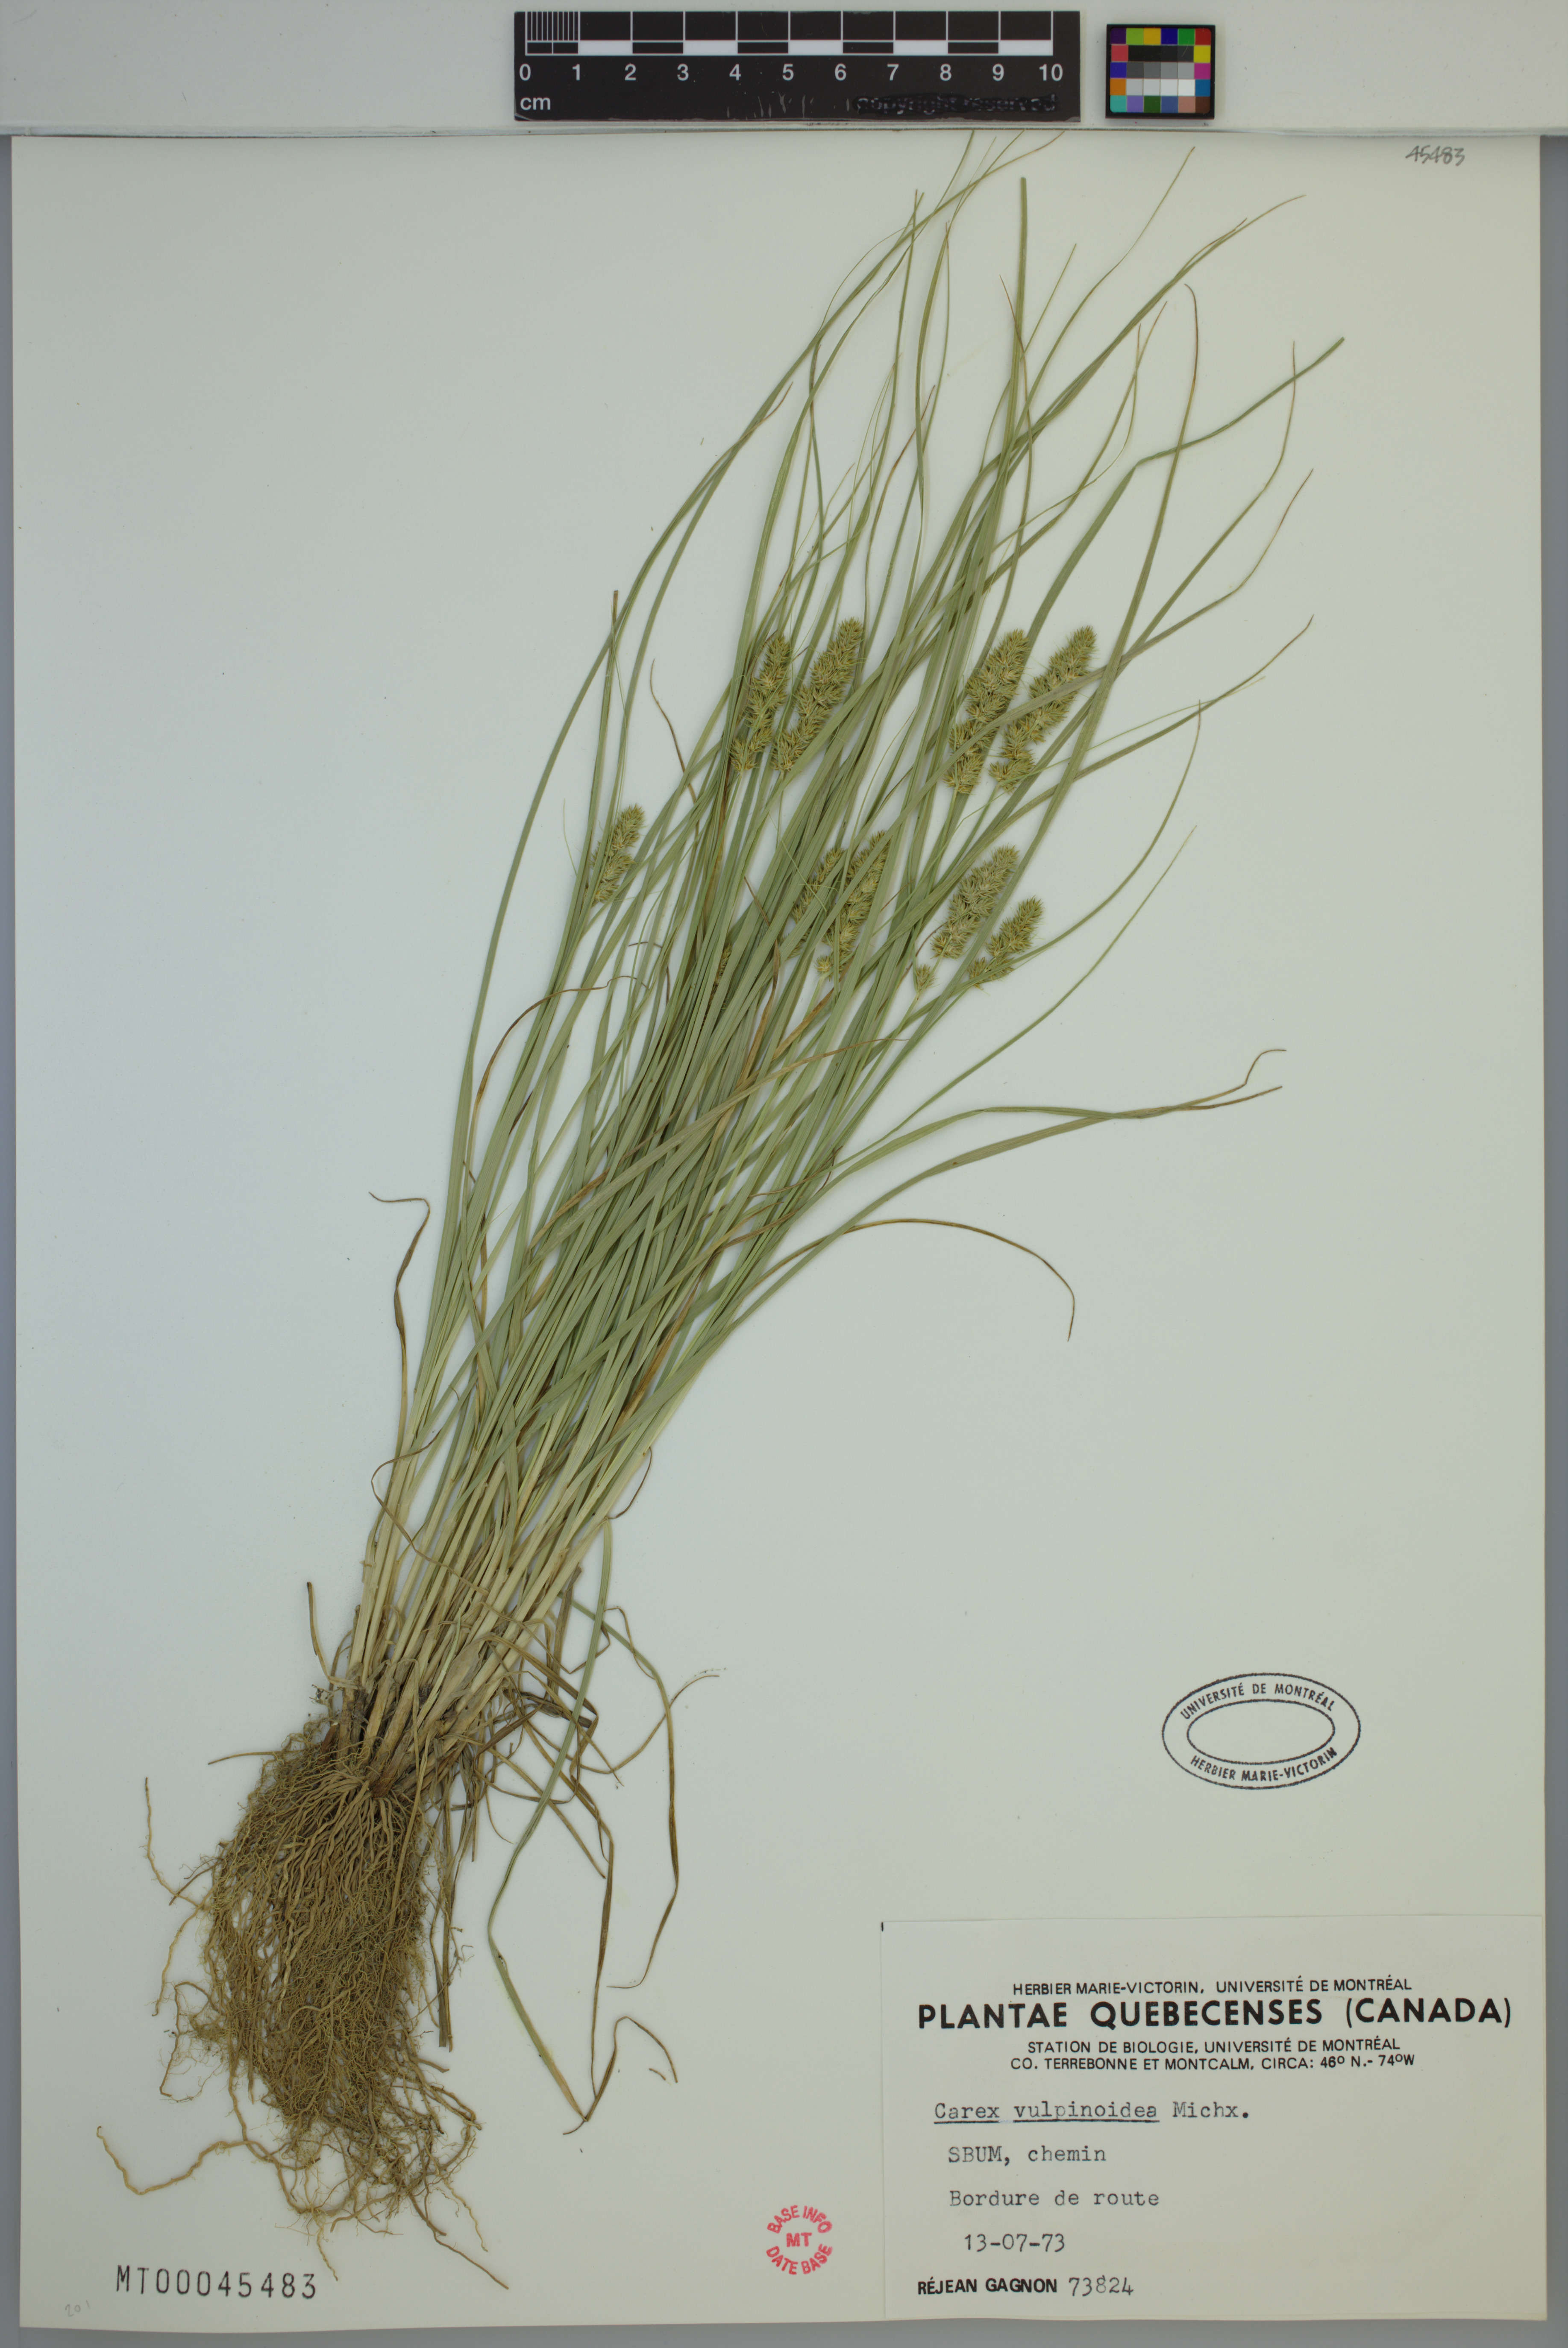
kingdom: Plantae
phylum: Tracheophyta
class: Liliopsida
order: Poales
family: Cyperaceae
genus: Carex
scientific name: Carex vulpinoidea
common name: American fox-sedge
